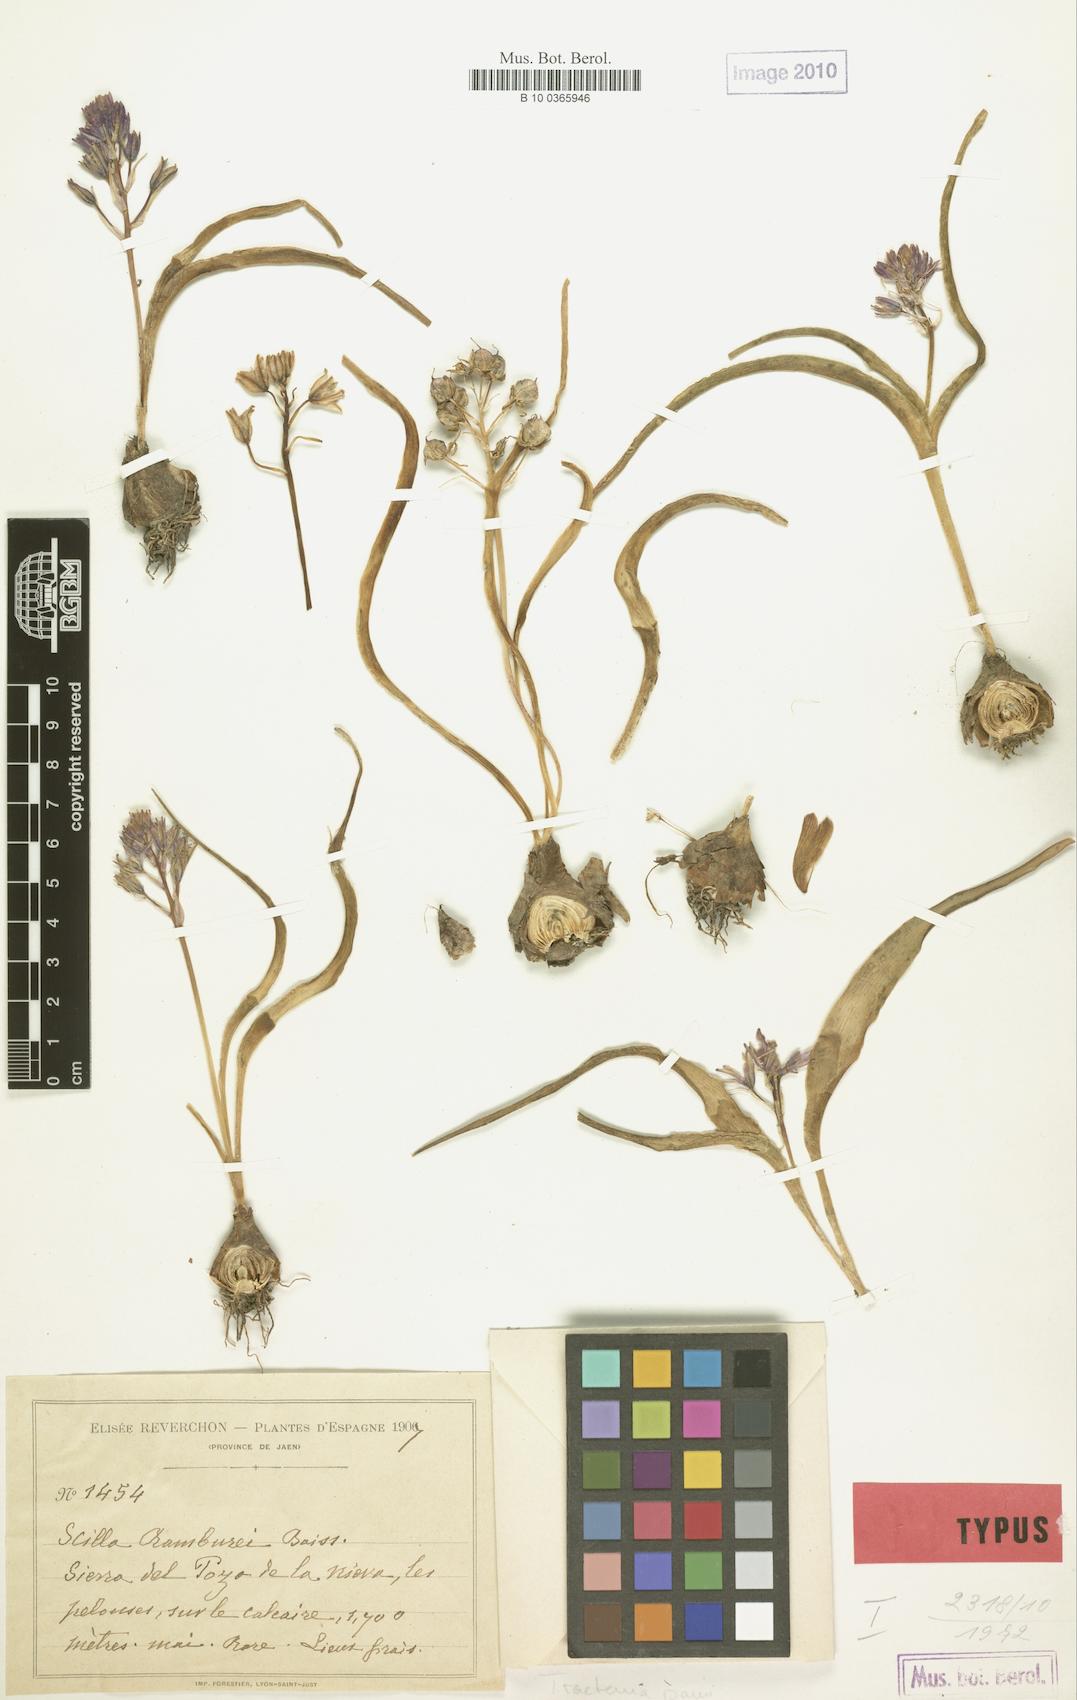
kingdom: Plantae
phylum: Tracheophyta
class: Liliopsida
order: Asparagales
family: Asparagaceae
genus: Scilla
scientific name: Scilla
